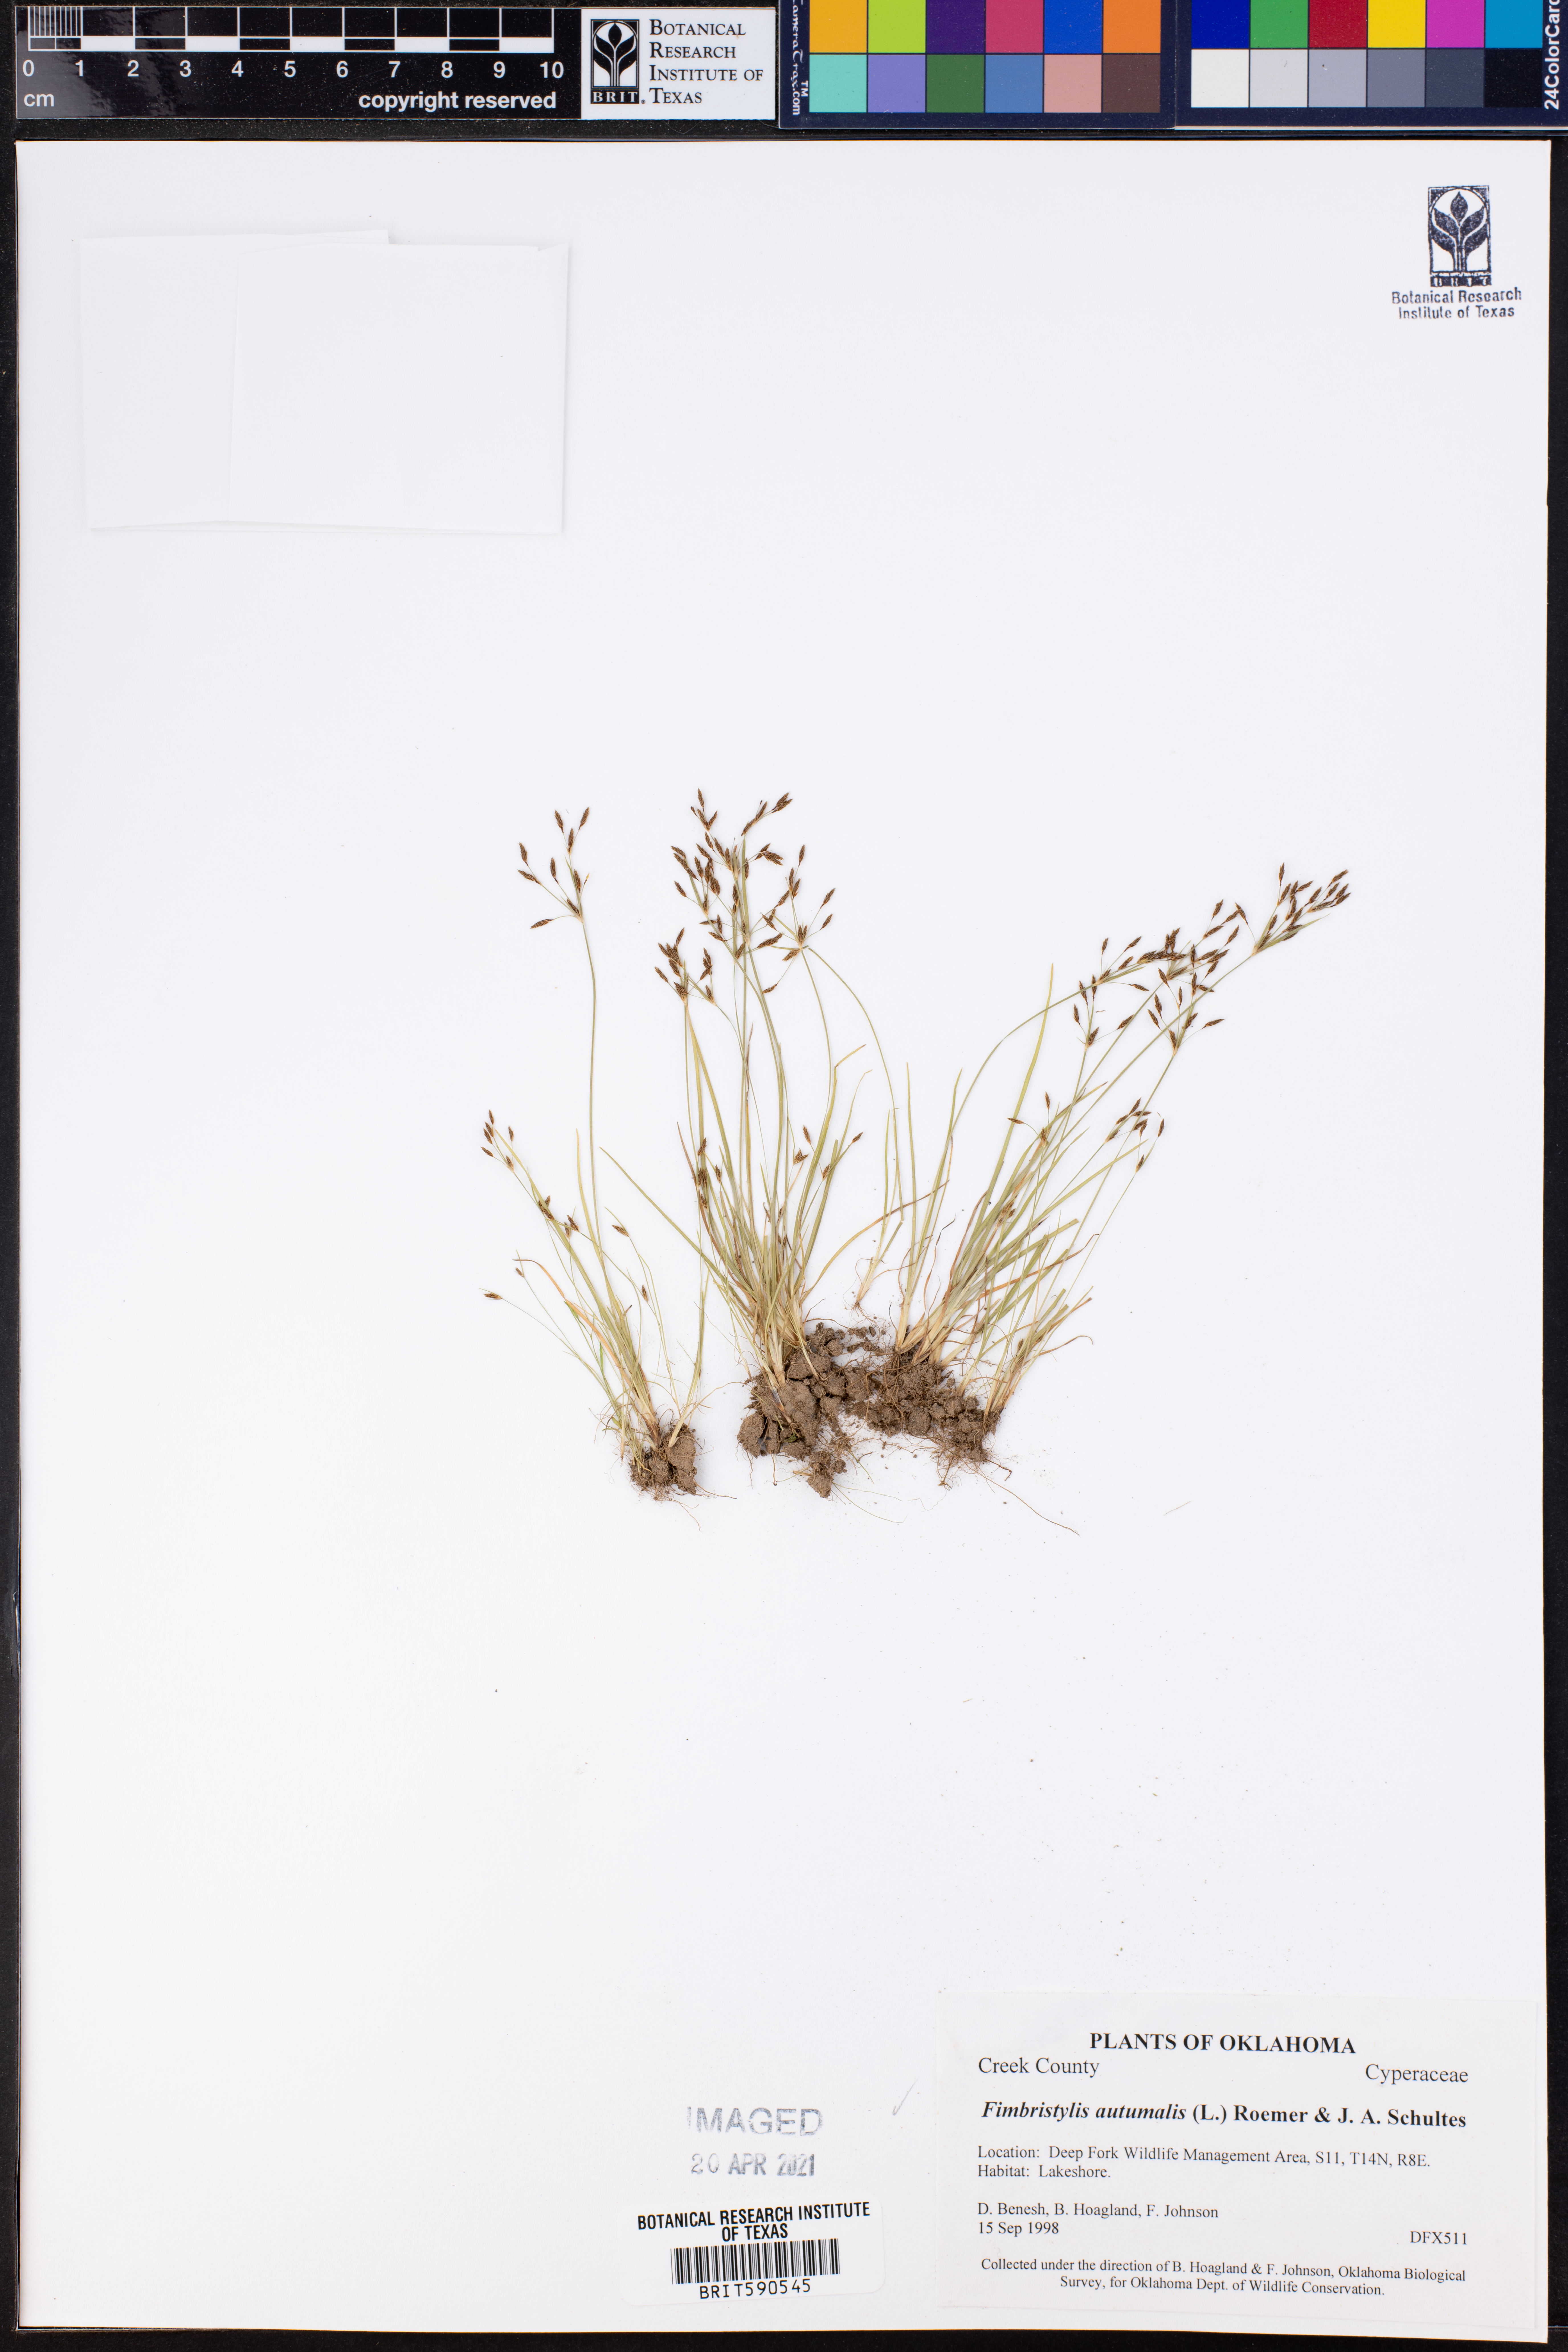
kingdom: Plantae
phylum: Tracheophyta
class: Liliopsida
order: Poales
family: Cyperaceae
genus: Fimbristylis
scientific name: Fimbristylis autumnalis
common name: Slender fimbristylis
